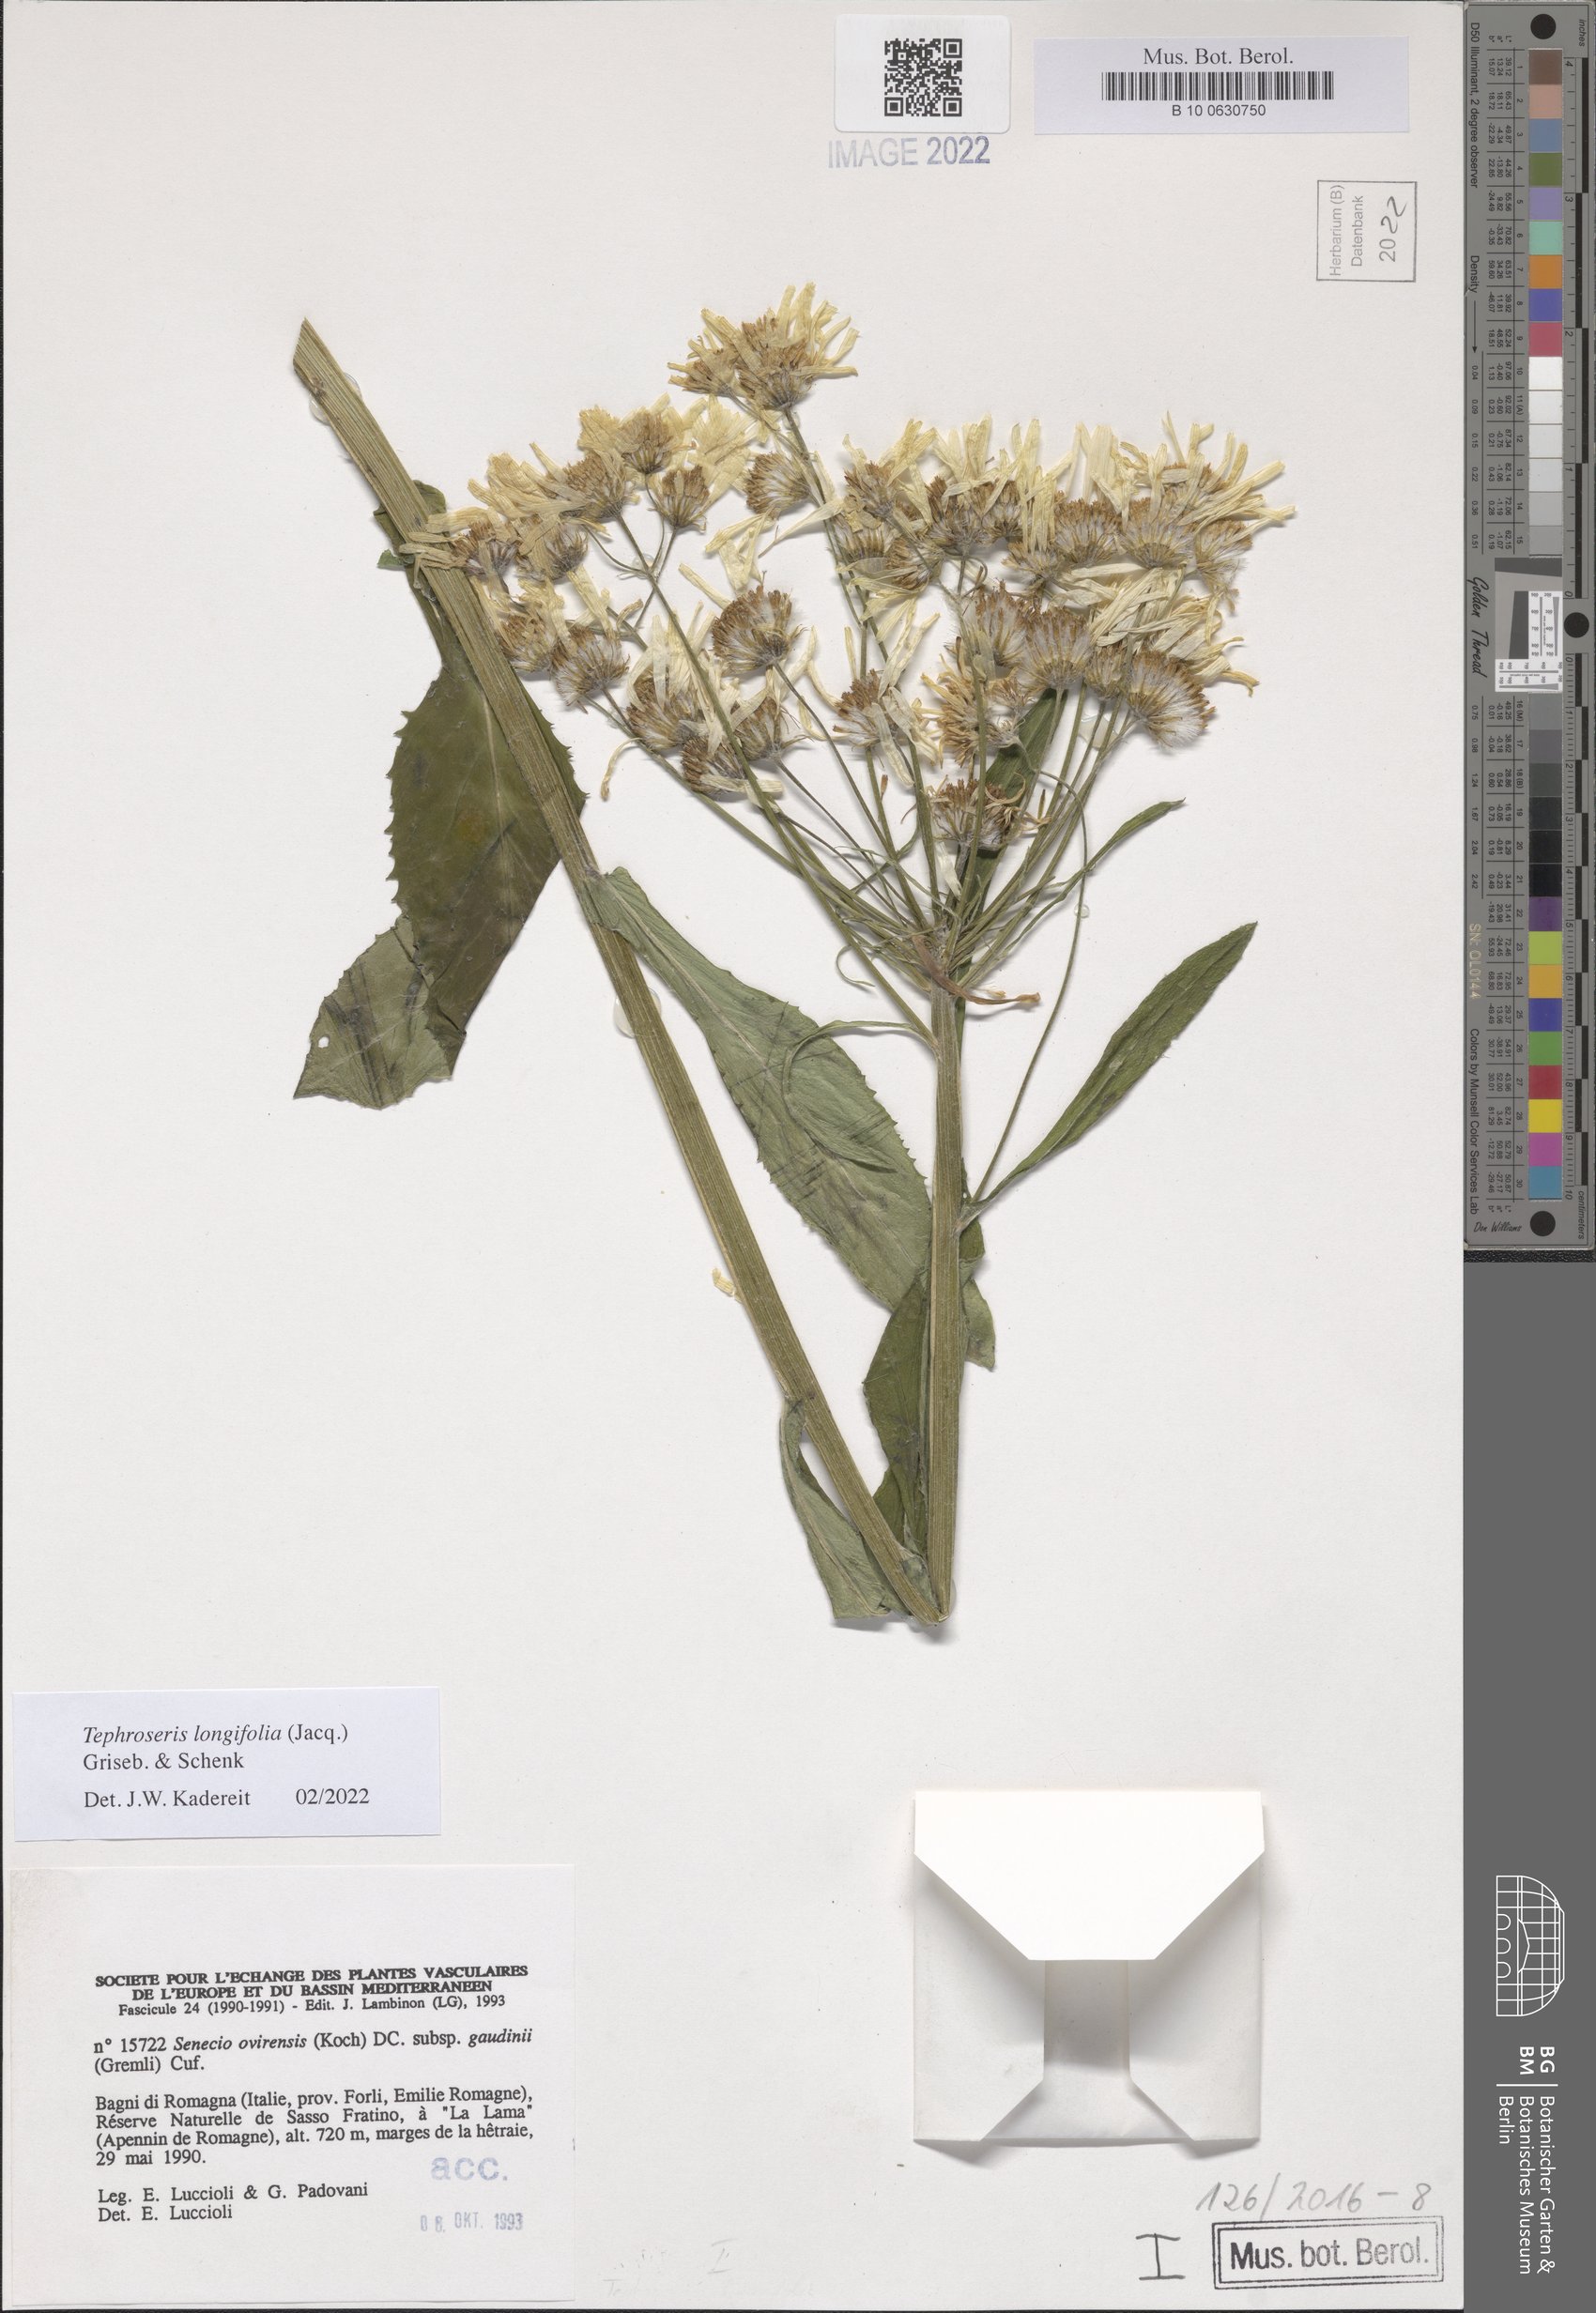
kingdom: Plantae
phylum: Tracheophyta
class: Magnoliopsida
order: Asterales
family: Asteraceae
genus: Tephroseris
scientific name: Tephroseris longifolia
